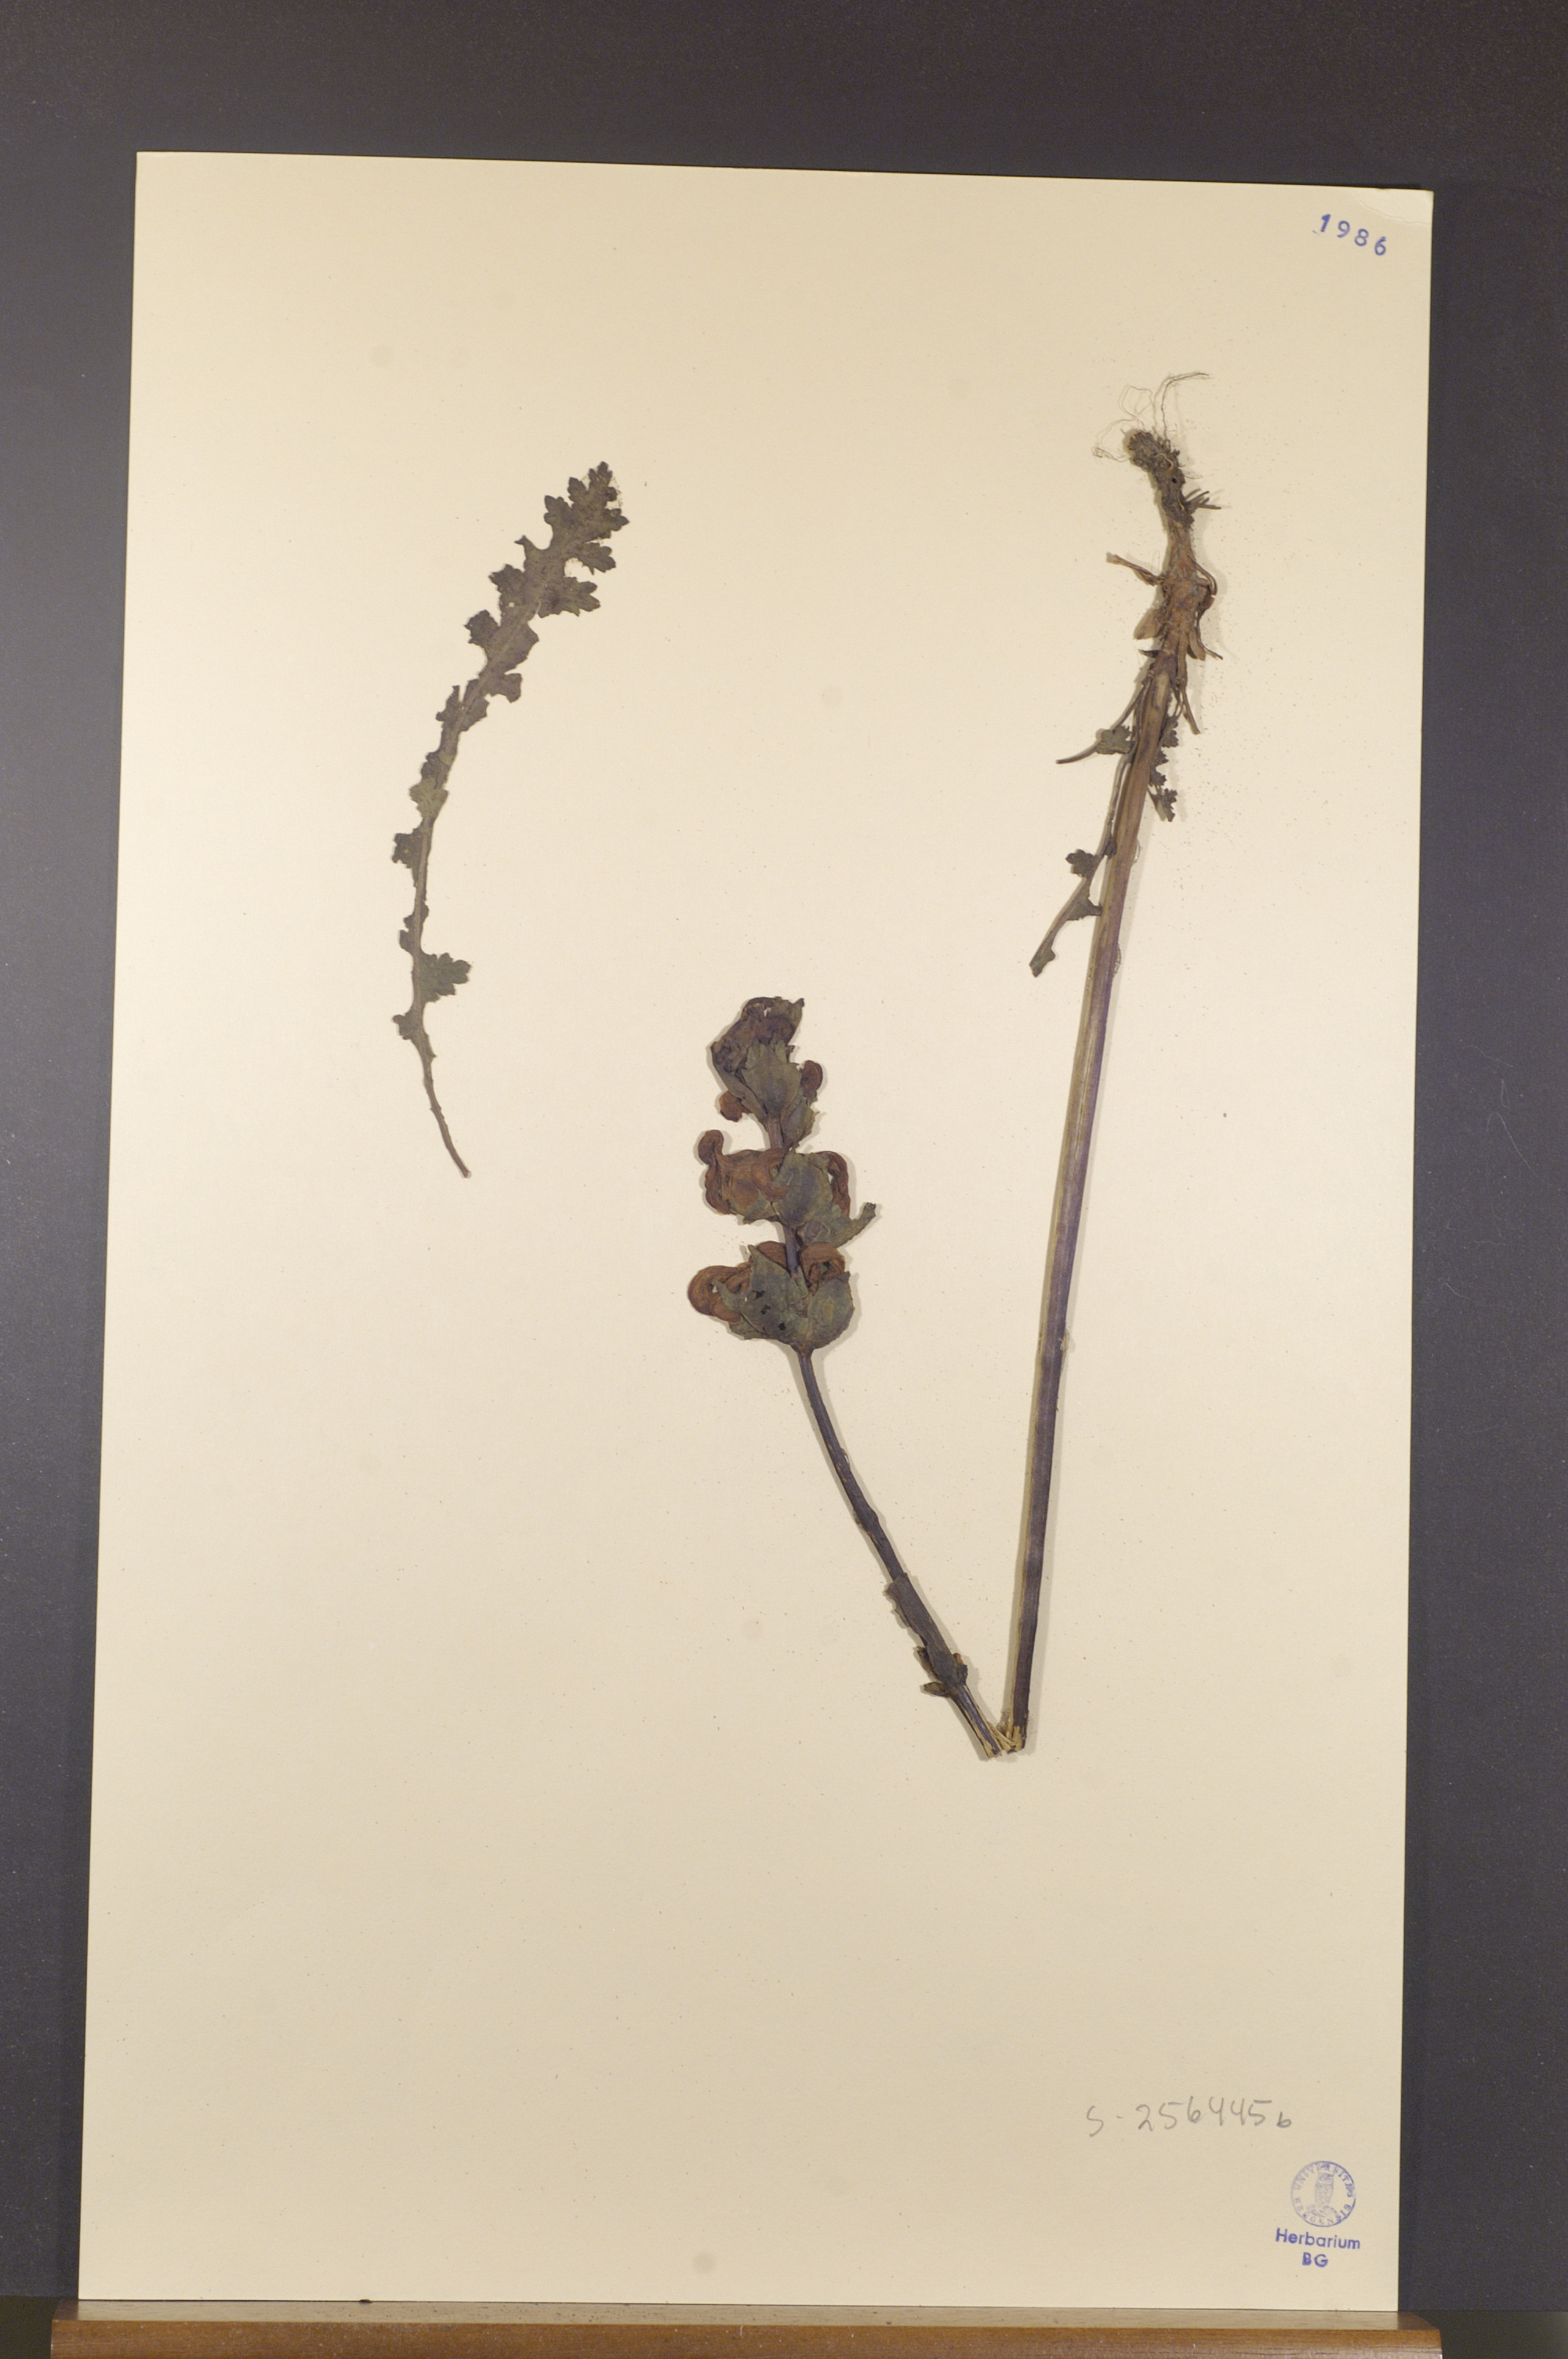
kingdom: Plantae
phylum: Tracheophyta
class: Magnoliopsida
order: Lamiales
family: Orobanchaceae
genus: Rhinanthus
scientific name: Rhinanthus groenlandicus
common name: Little yellow rattle
